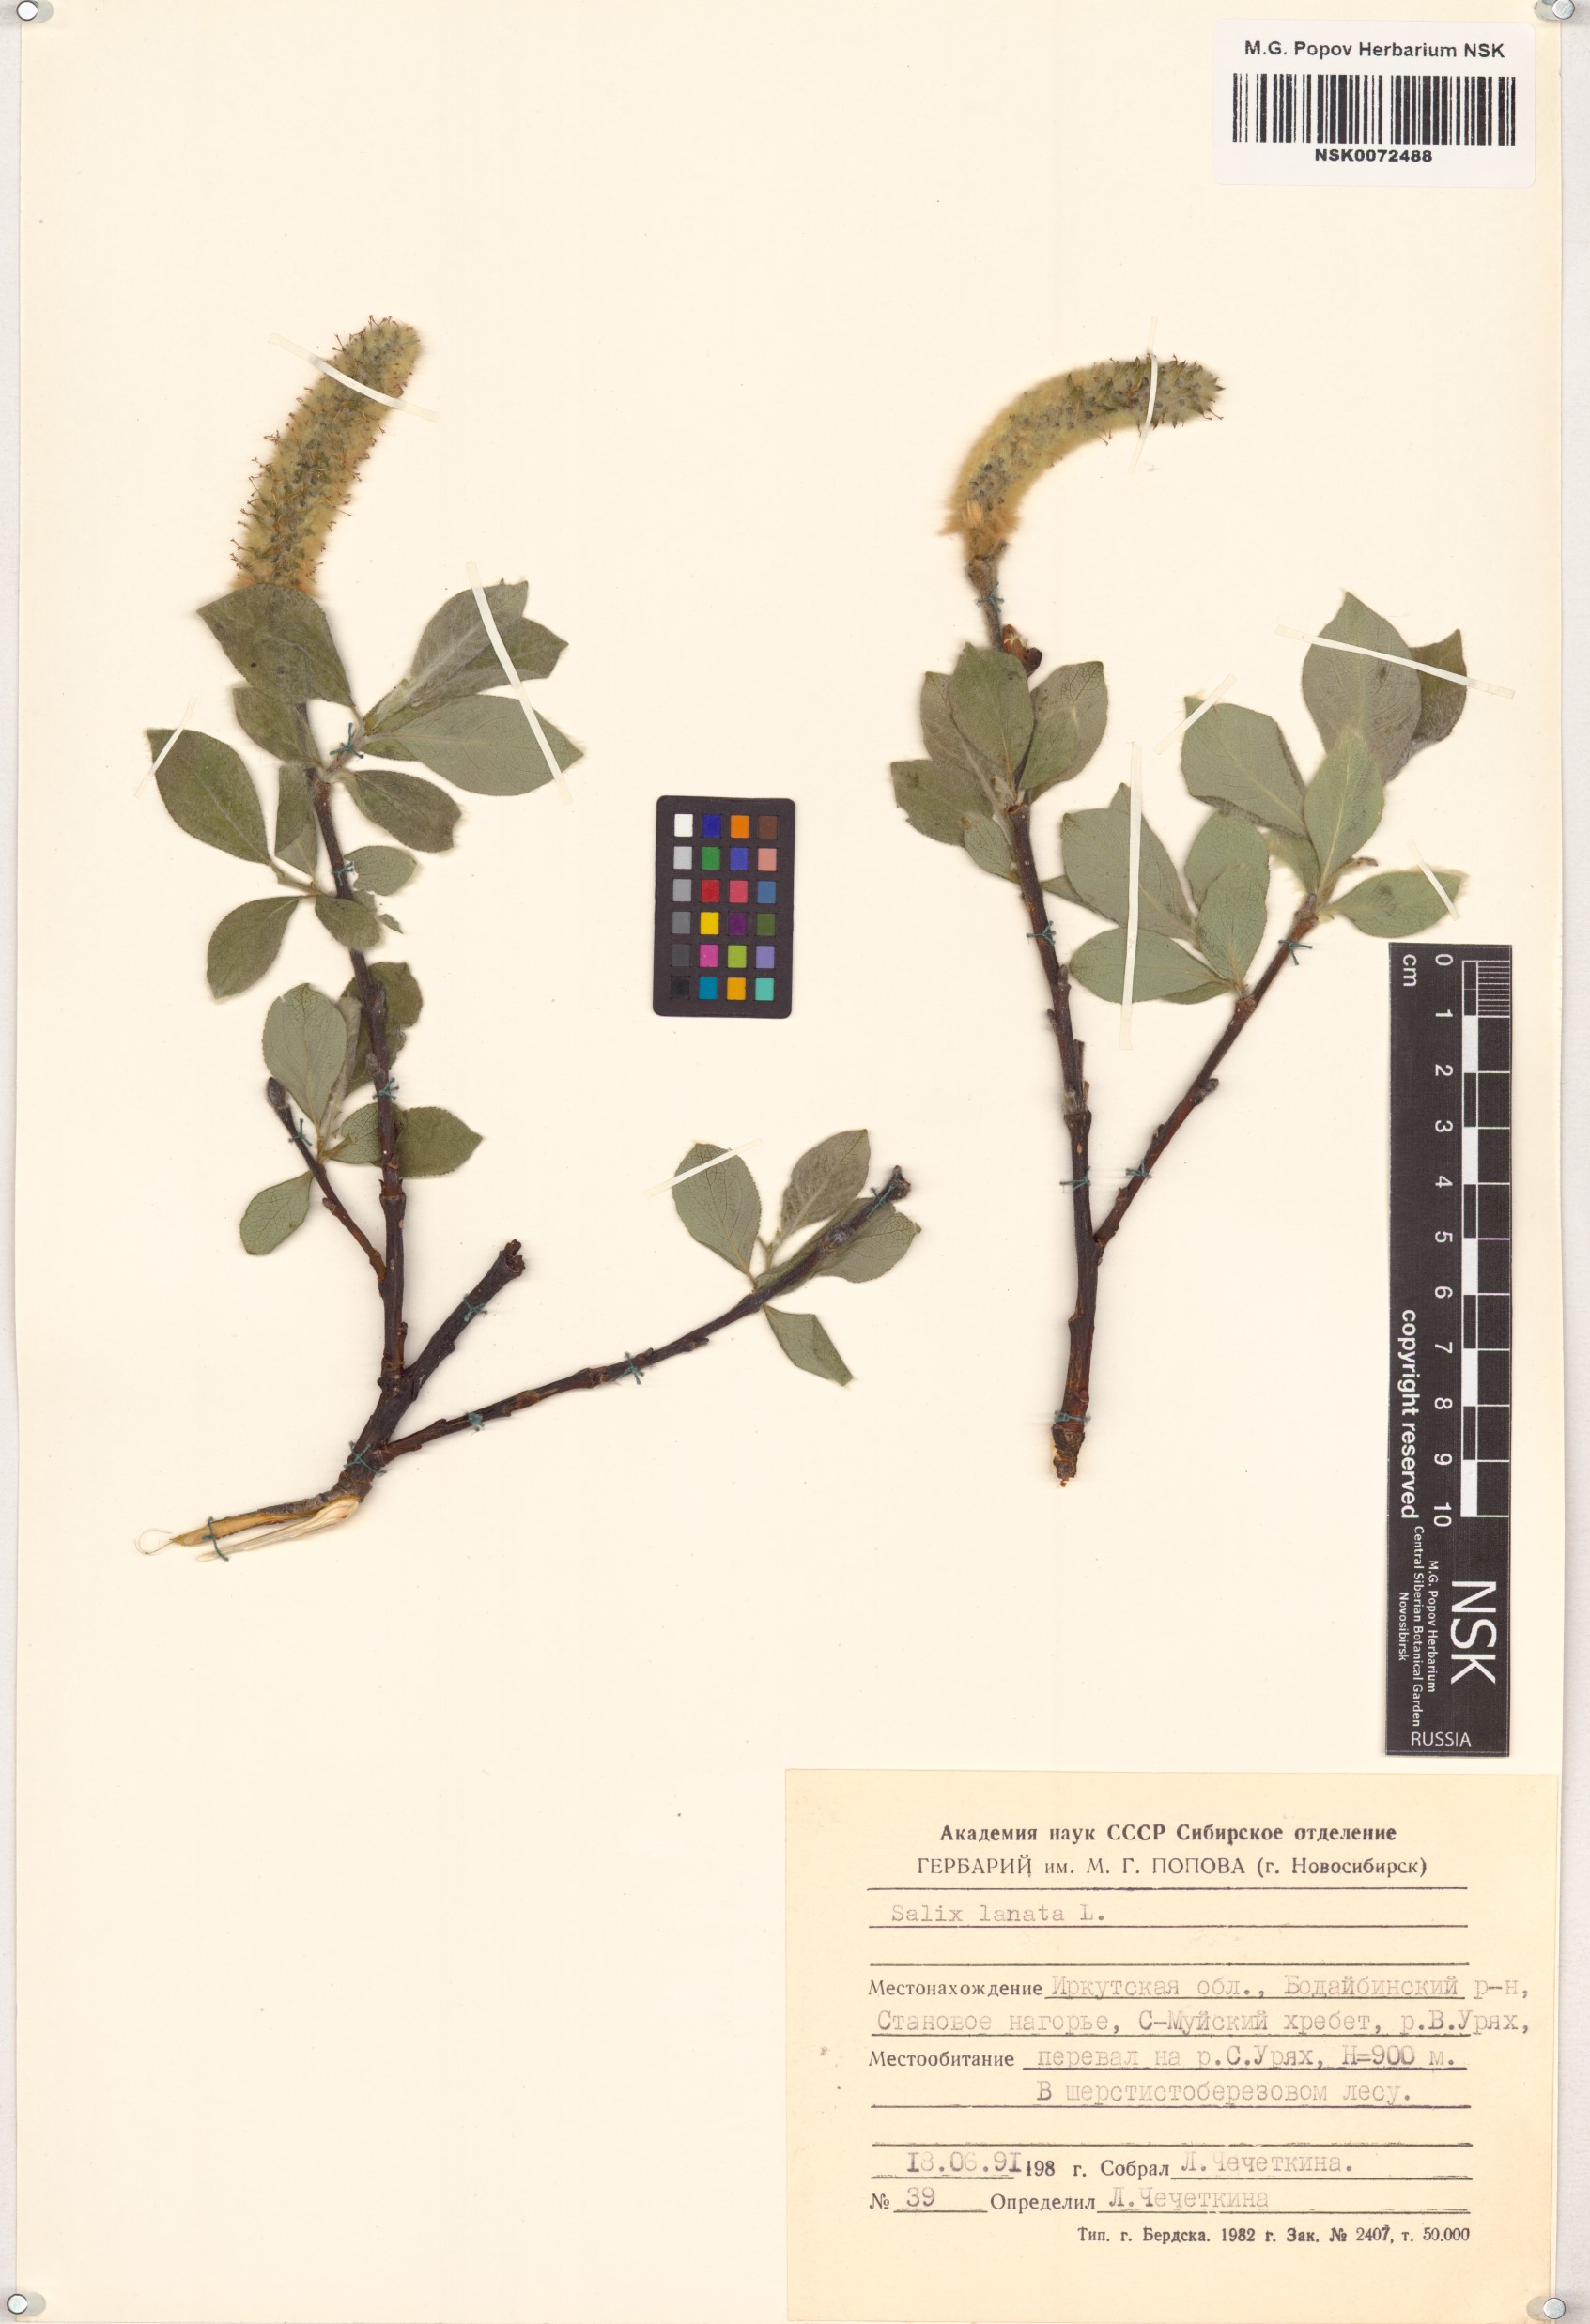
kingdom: Plantae
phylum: Tracheophyta
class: Magnoliopsida
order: Malpighiales
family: Salicaceae
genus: Salix
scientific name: Salix lanata
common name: Woolly willow
